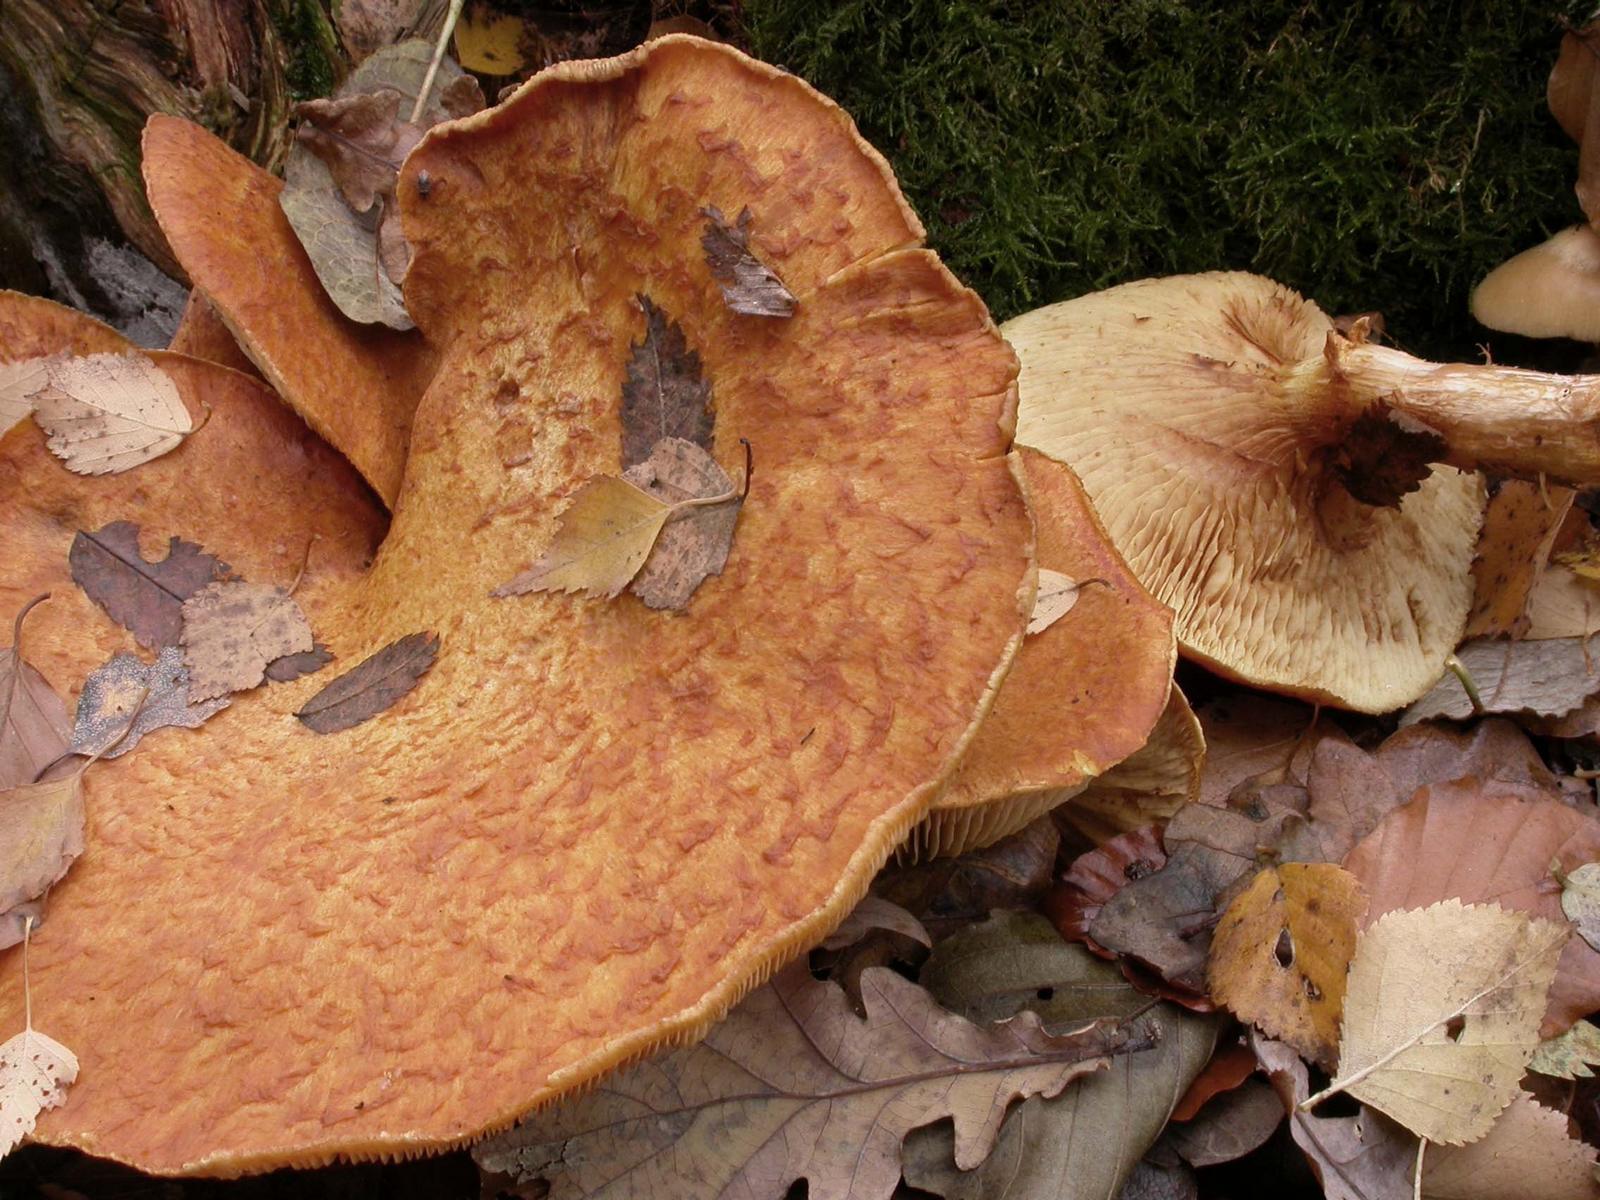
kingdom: Fungi
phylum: Basidiomycota
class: Agaricomycetes
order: Agaricales
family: Hymenogastraceae
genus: Gymnopilus
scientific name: Gymnopilus spectabilis
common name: fibret flammehat
